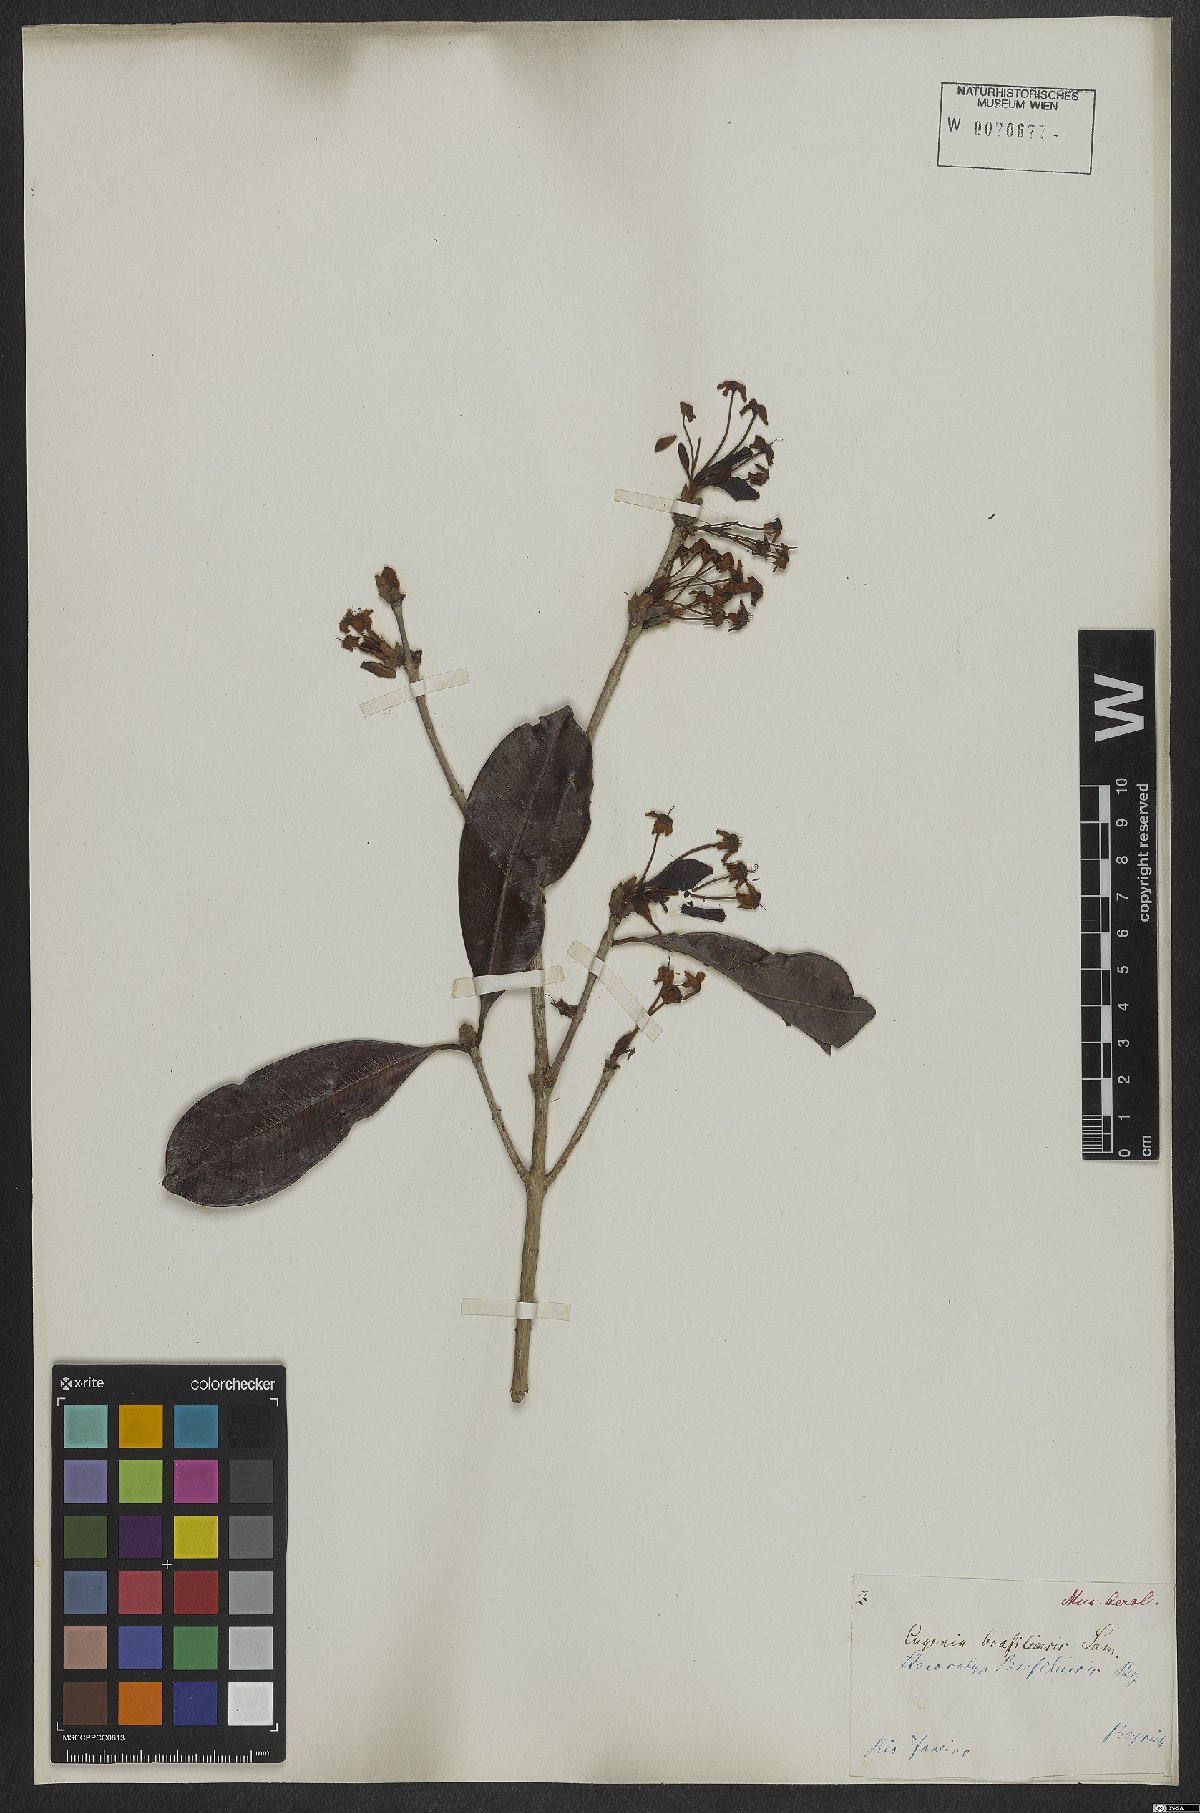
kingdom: Plantae
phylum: Tracheophyta
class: Magnoliopsida
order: Myrtales
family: Myrtaceae
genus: Eugenia
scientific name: Eugenia brasiliensis
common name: Grumichama
